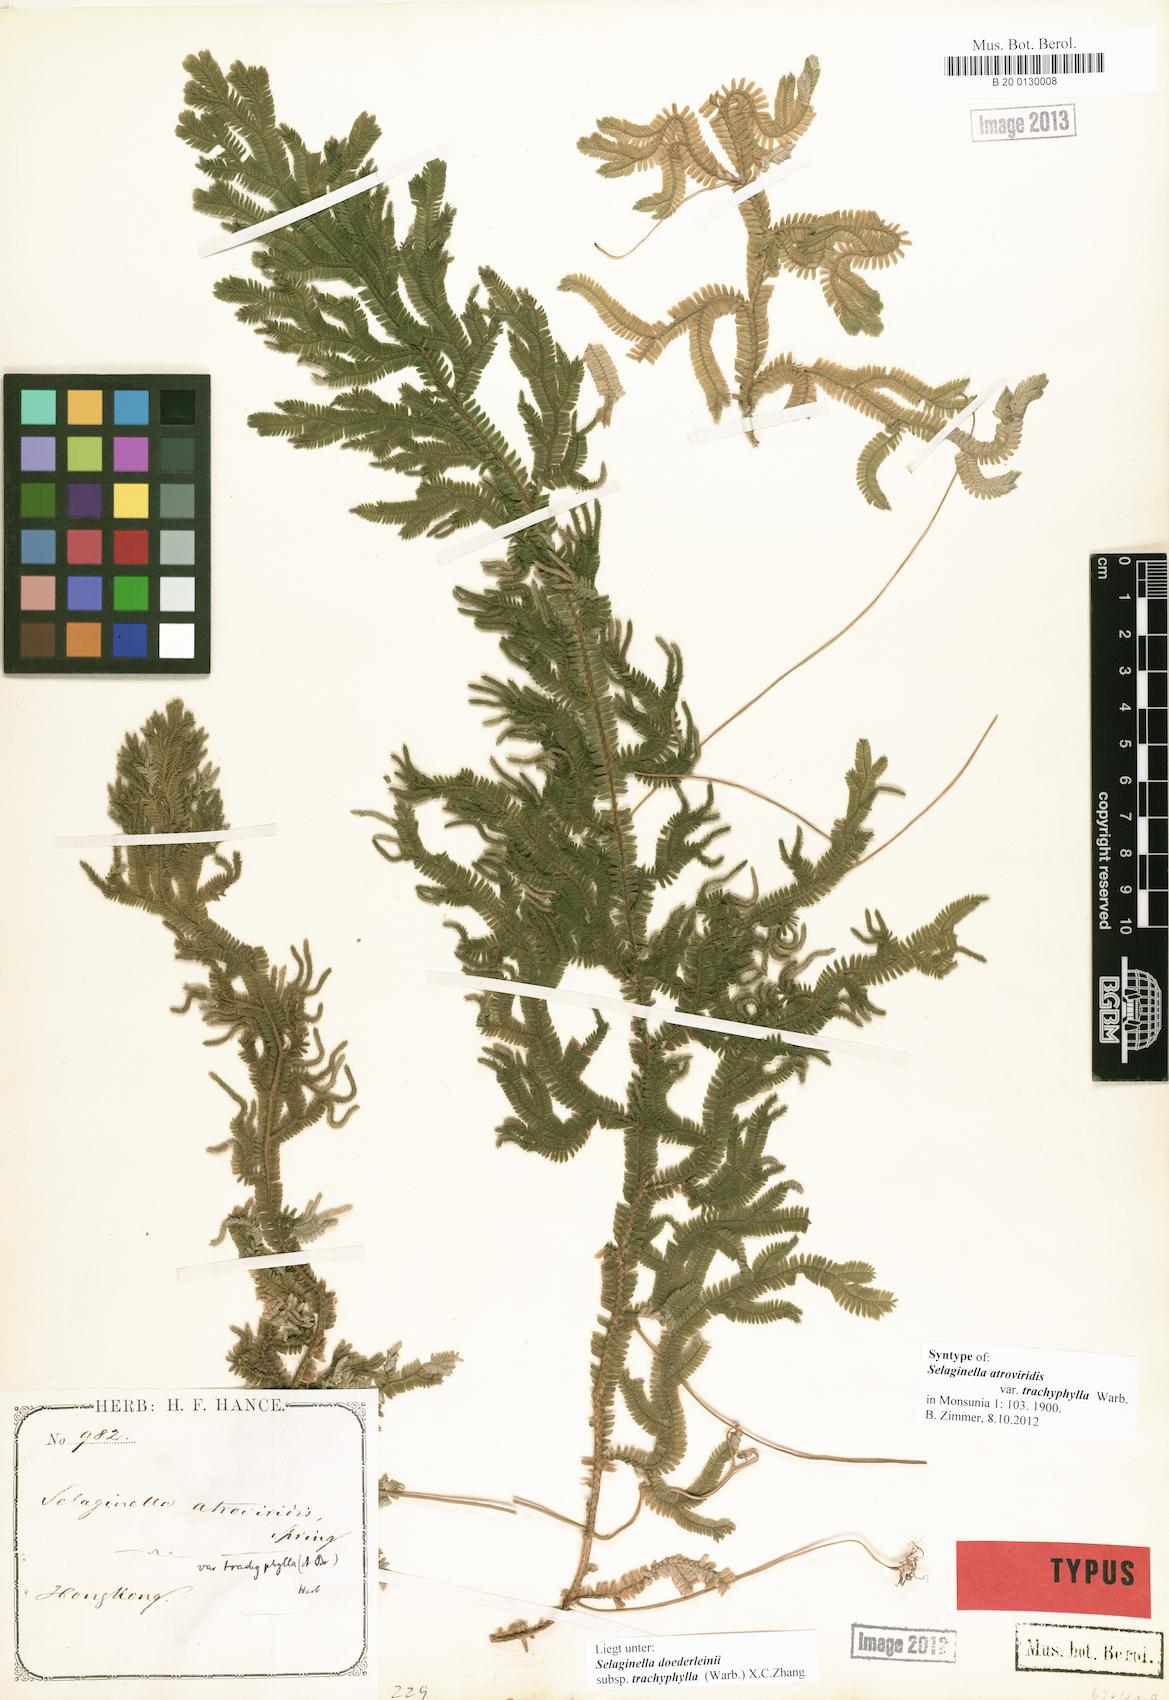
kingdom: Plantae
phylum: Tracheophyta
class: Lycopodiopsida
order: Selaginellales
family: Selaginellaceae
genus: Selaginella
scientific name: Selaginella trachyphylla
